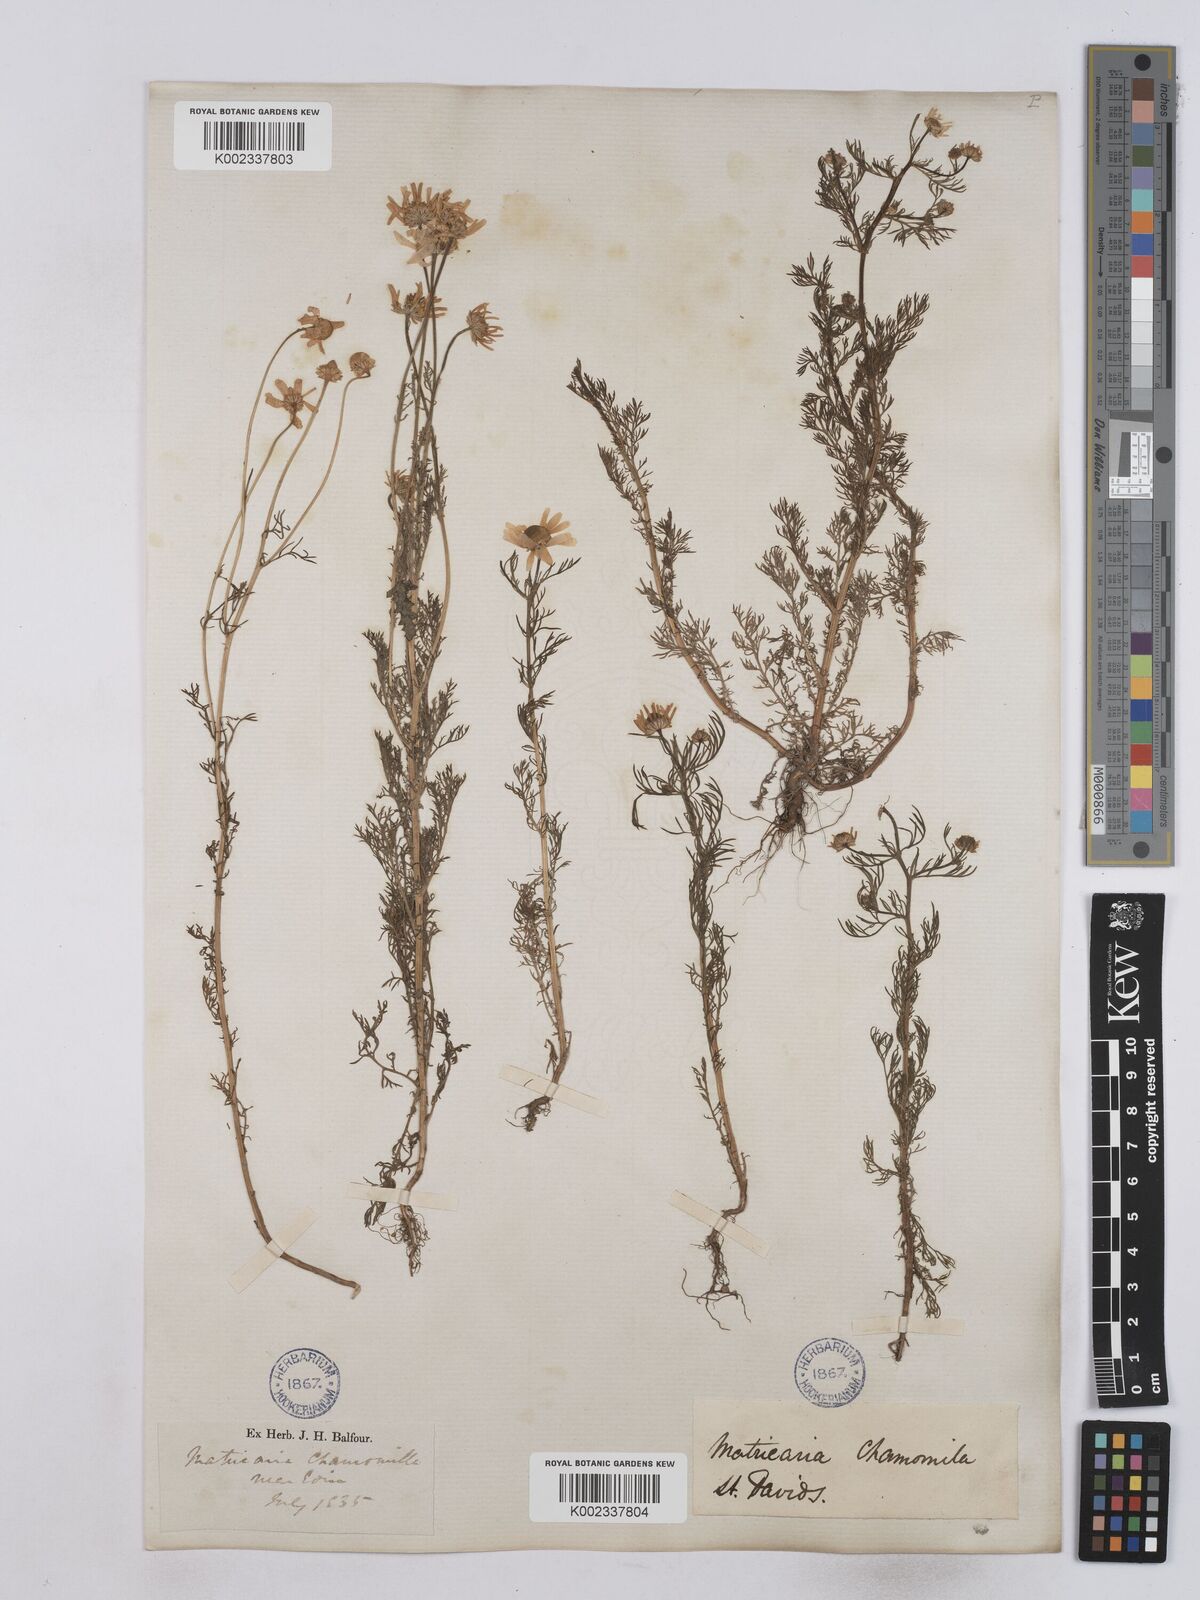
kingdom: Plantae
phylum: Tracheophyta
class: Magnoliopsida
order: Asterales
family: Asteraceae
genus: Matricaria
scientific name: Matricaria chamomilla
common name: Scented mayweed
